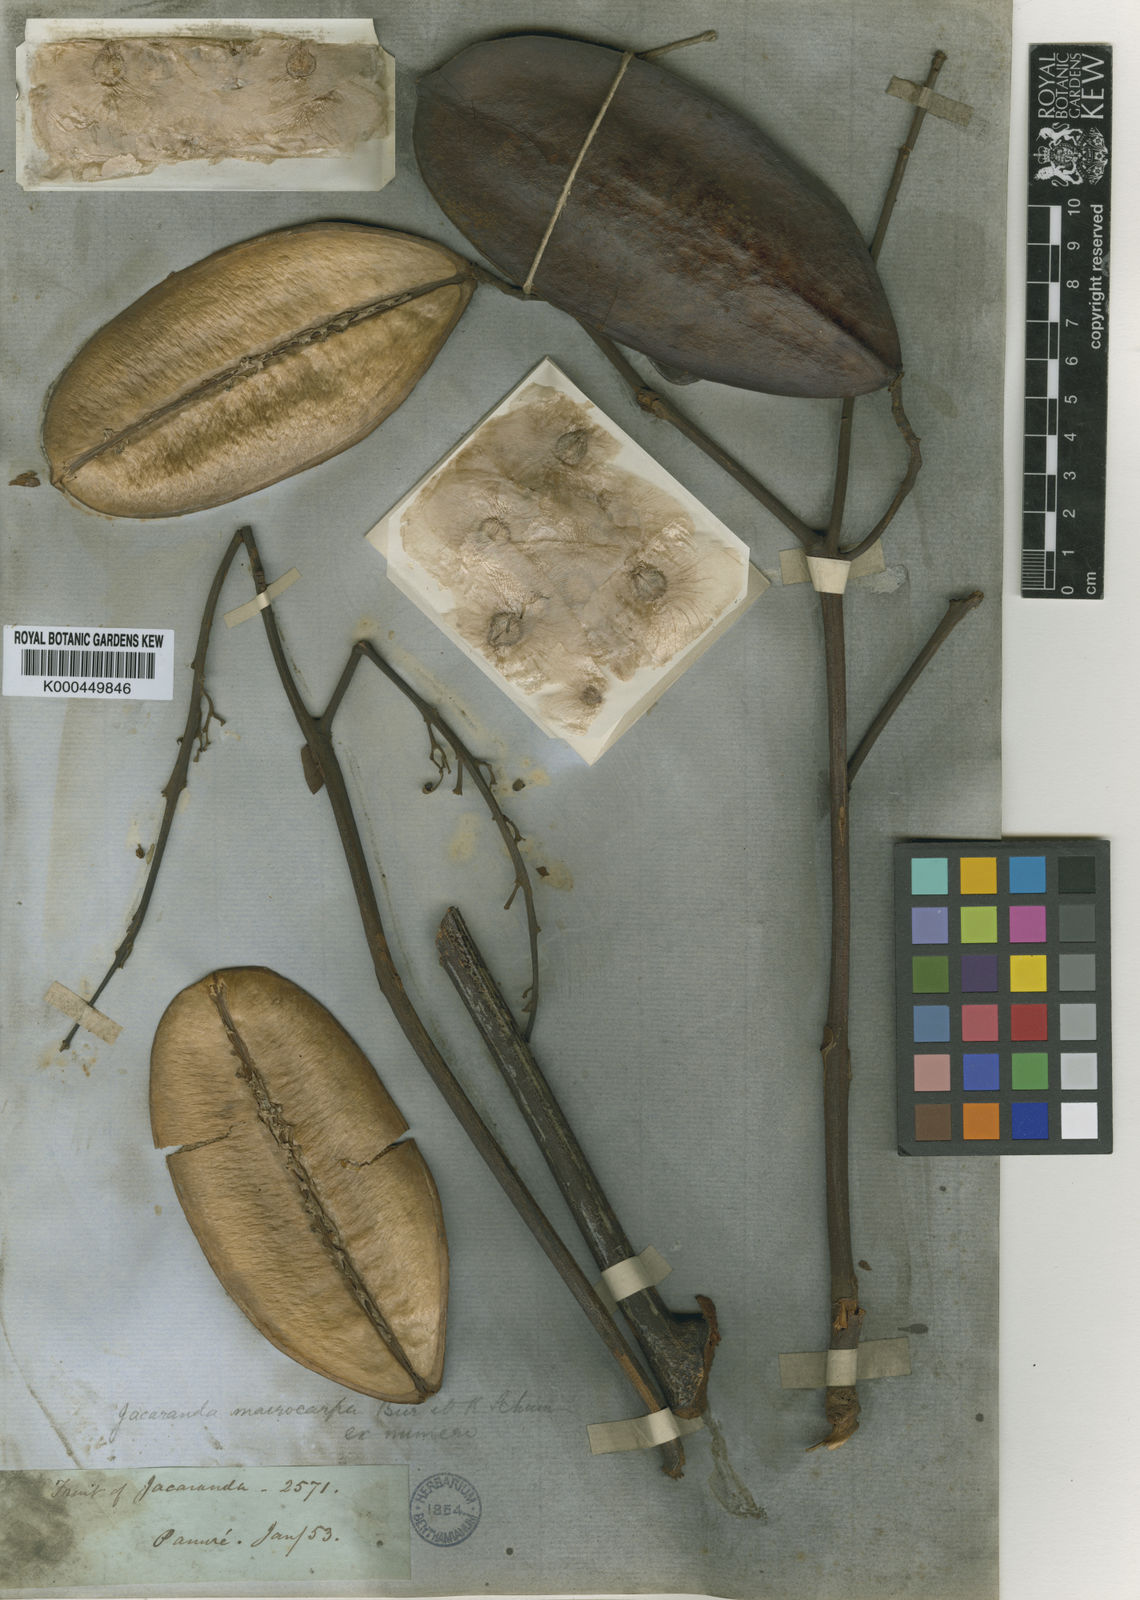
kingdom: Plantae
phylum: Tracheophyta
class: Magnoliopsida
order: Lamiales
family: Bignoniaceae
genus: Jacaranda
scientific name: Jacaranda macrocarpa
